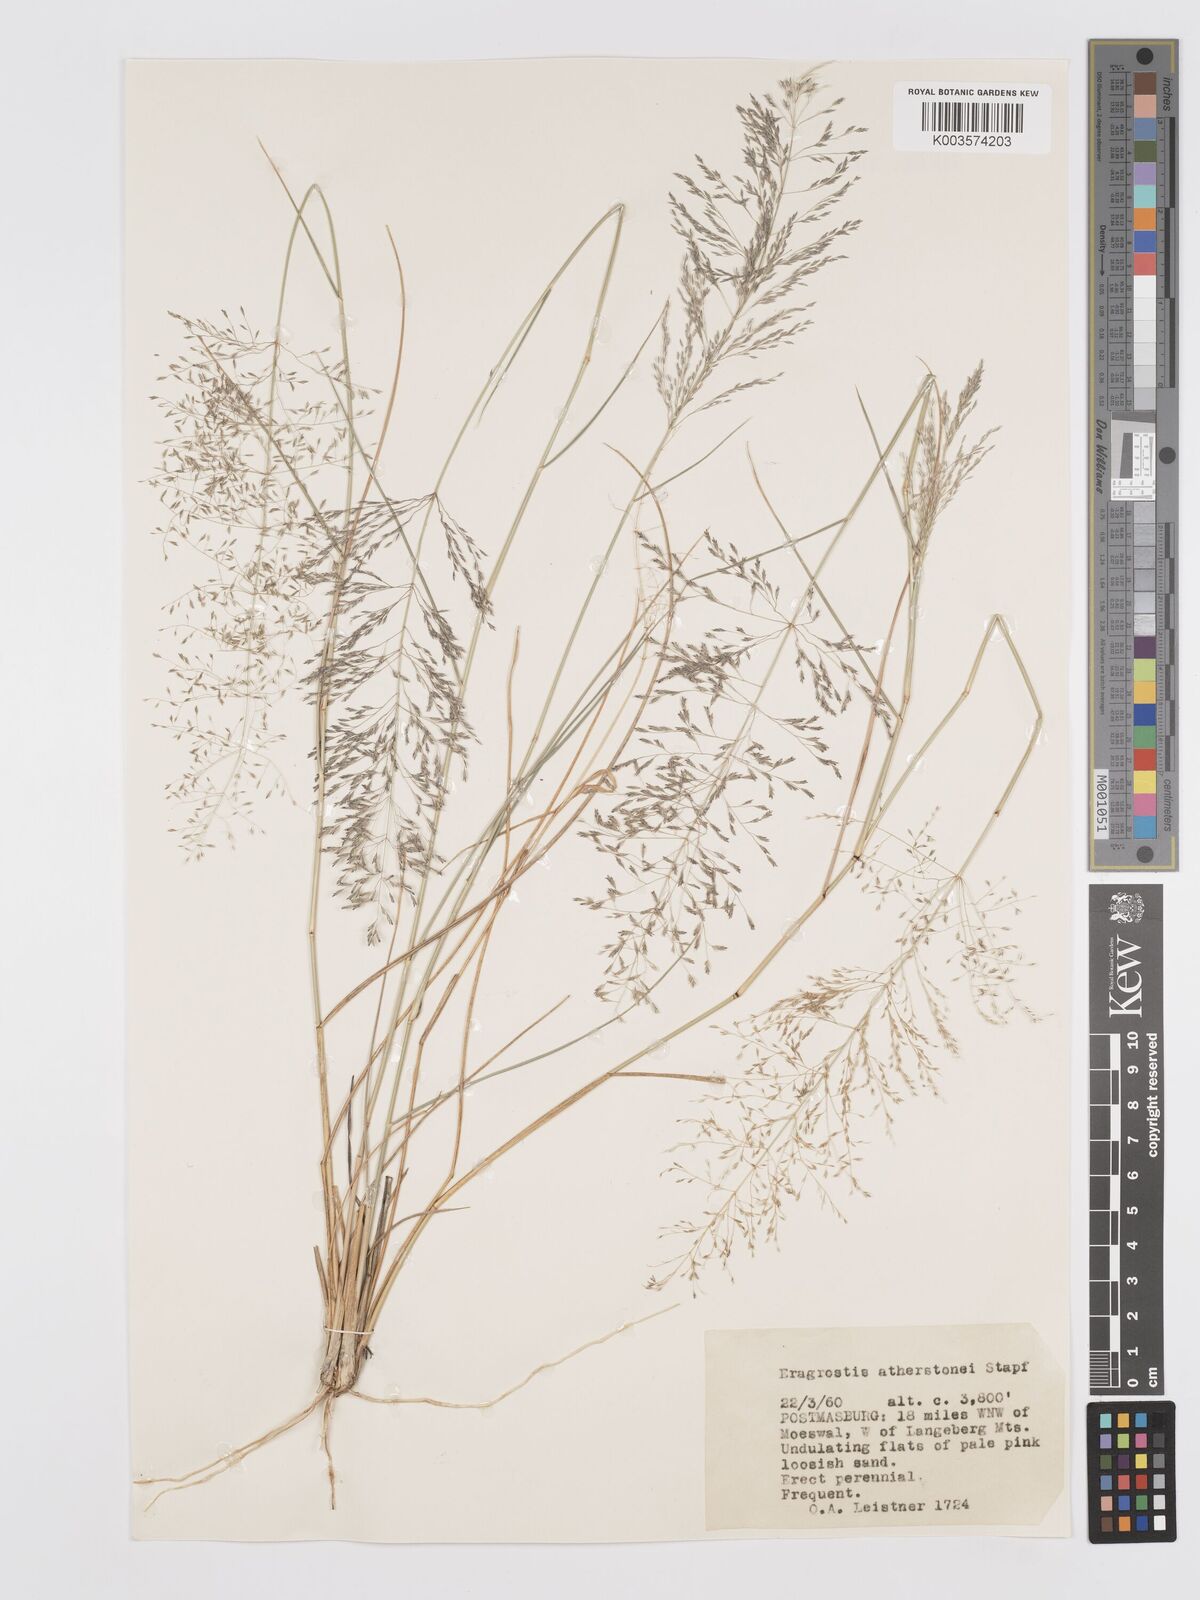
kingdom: Plantae
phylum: Tracheophyta
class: Liliopsida
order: Poales
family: Poaceae
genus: Eragrostis
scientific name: Eragrostis cylindriflora
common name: Cylinderflower lovegrass
